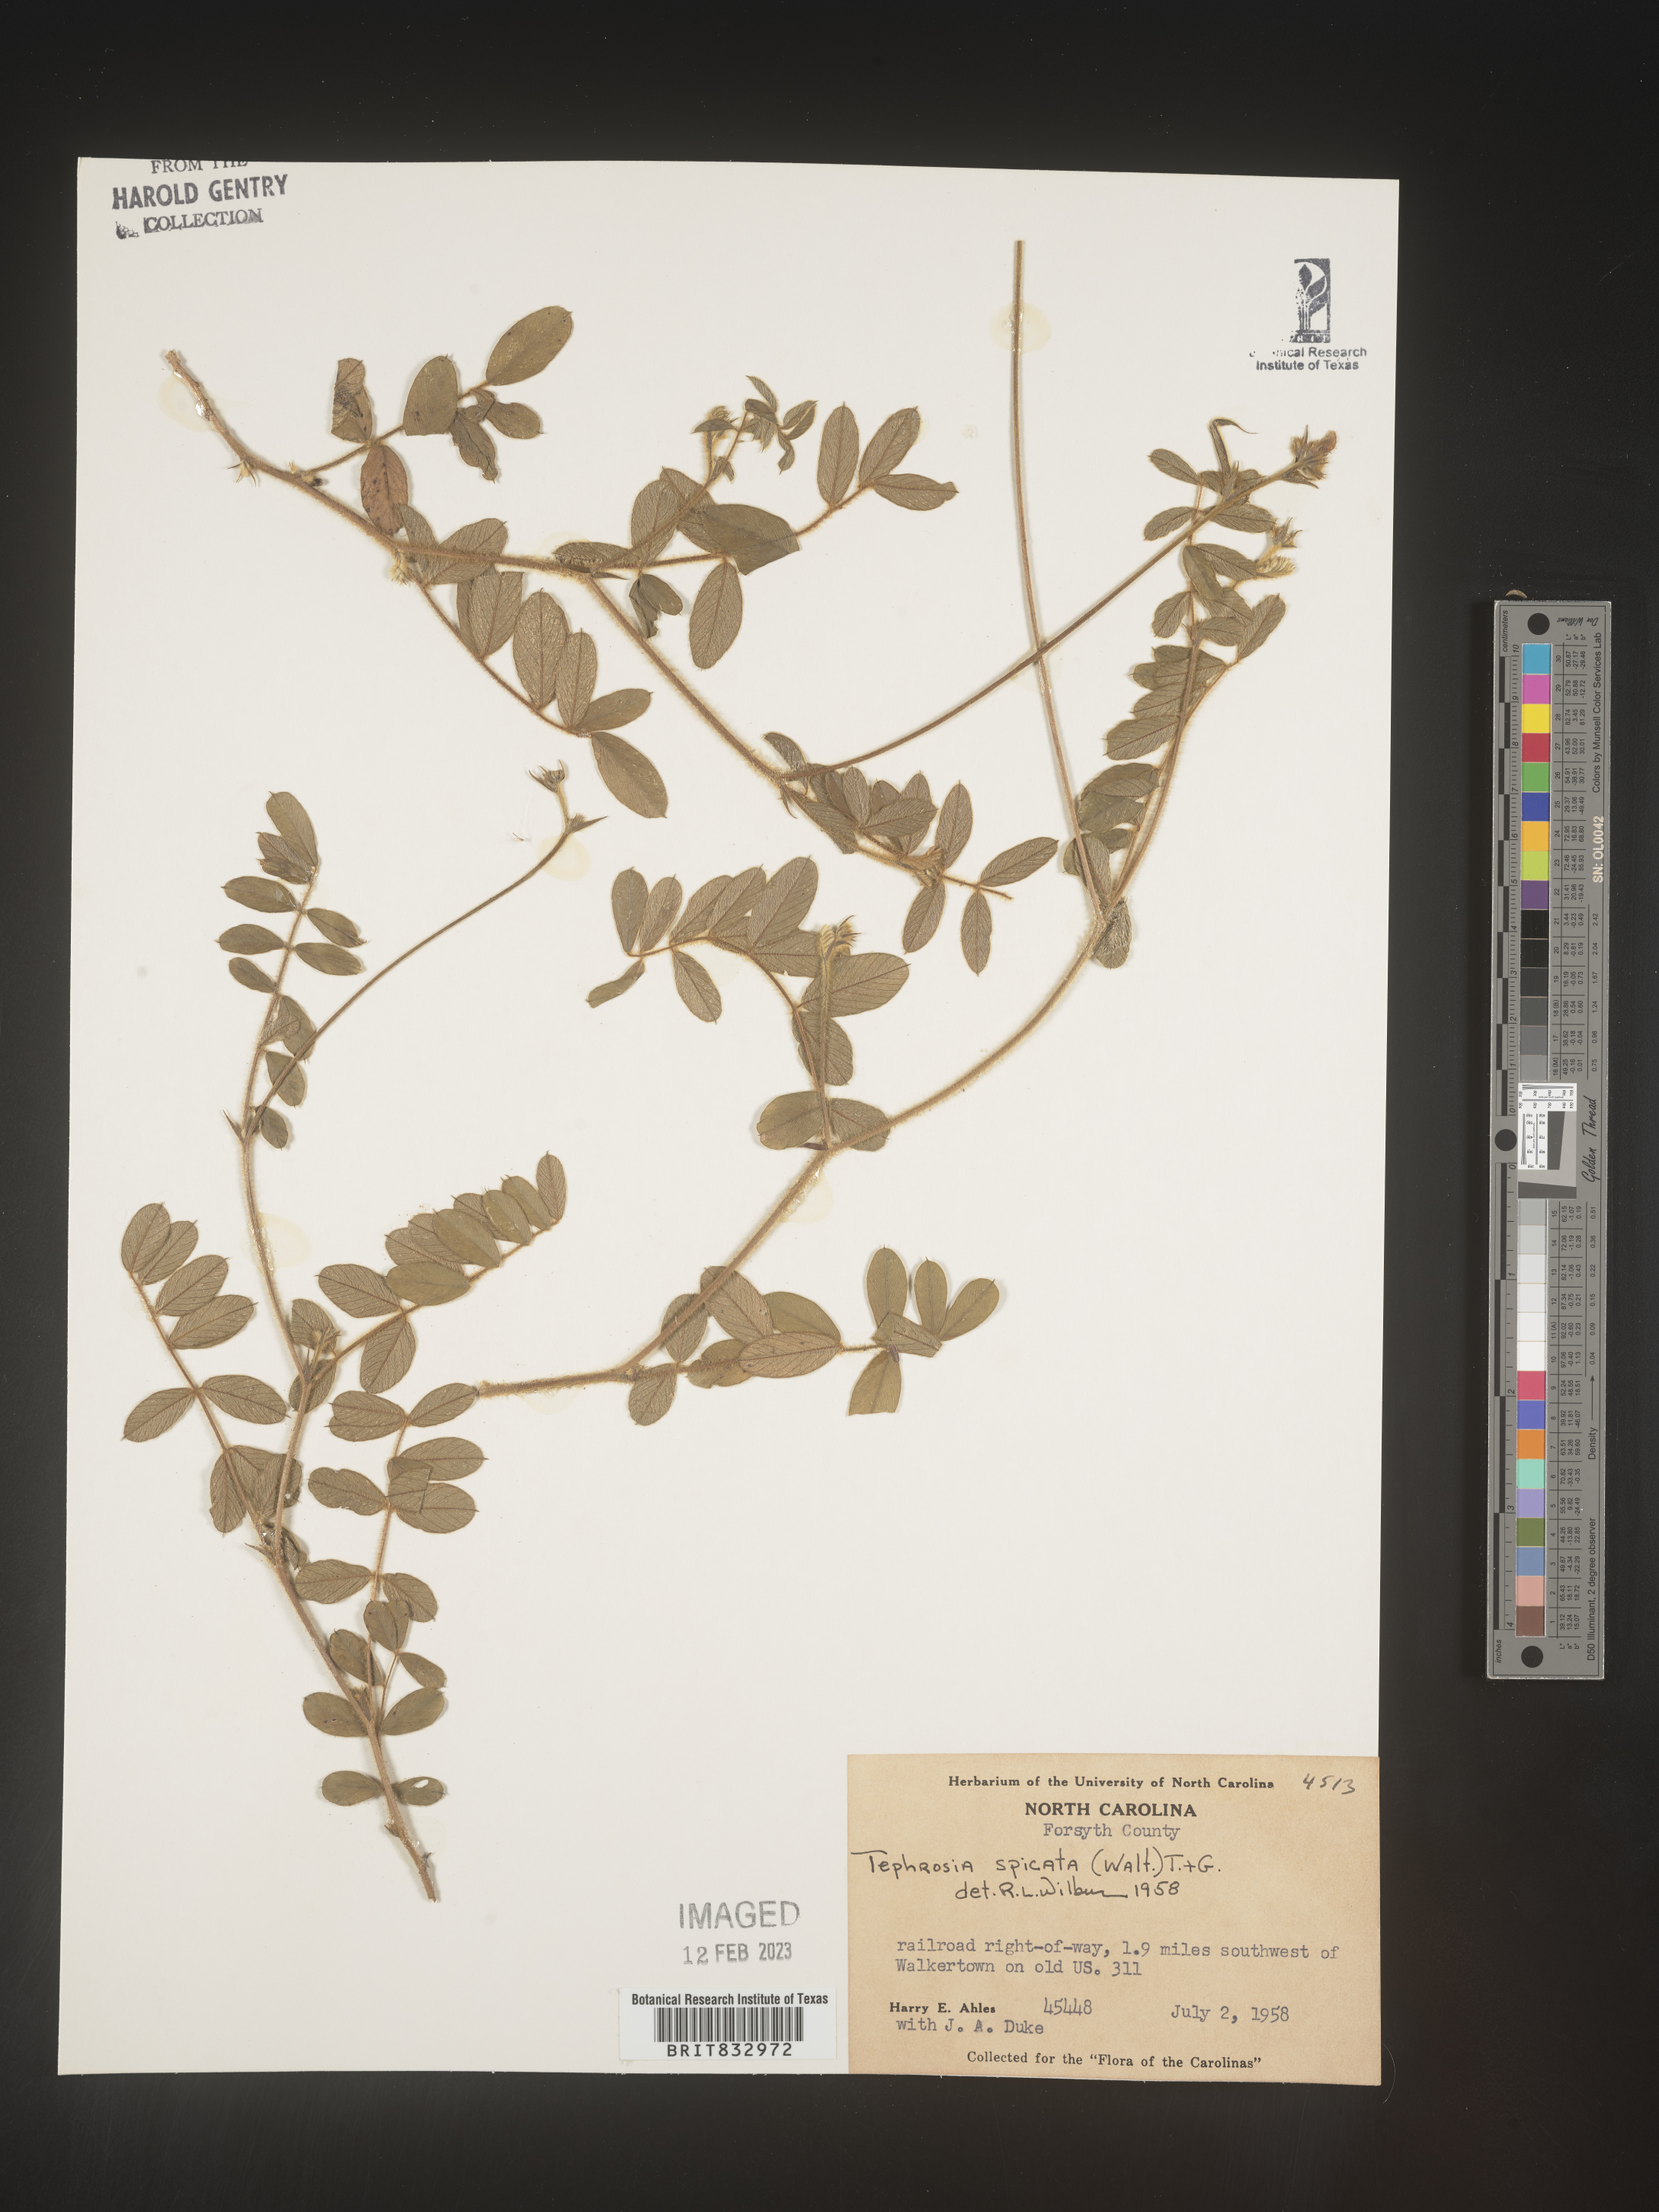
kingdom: Plantae
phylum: Tracheophyta
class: Magnoliopsida
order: Fabales
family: Fabaceae
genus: Tephrosia
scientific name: Tephrosia spicata
